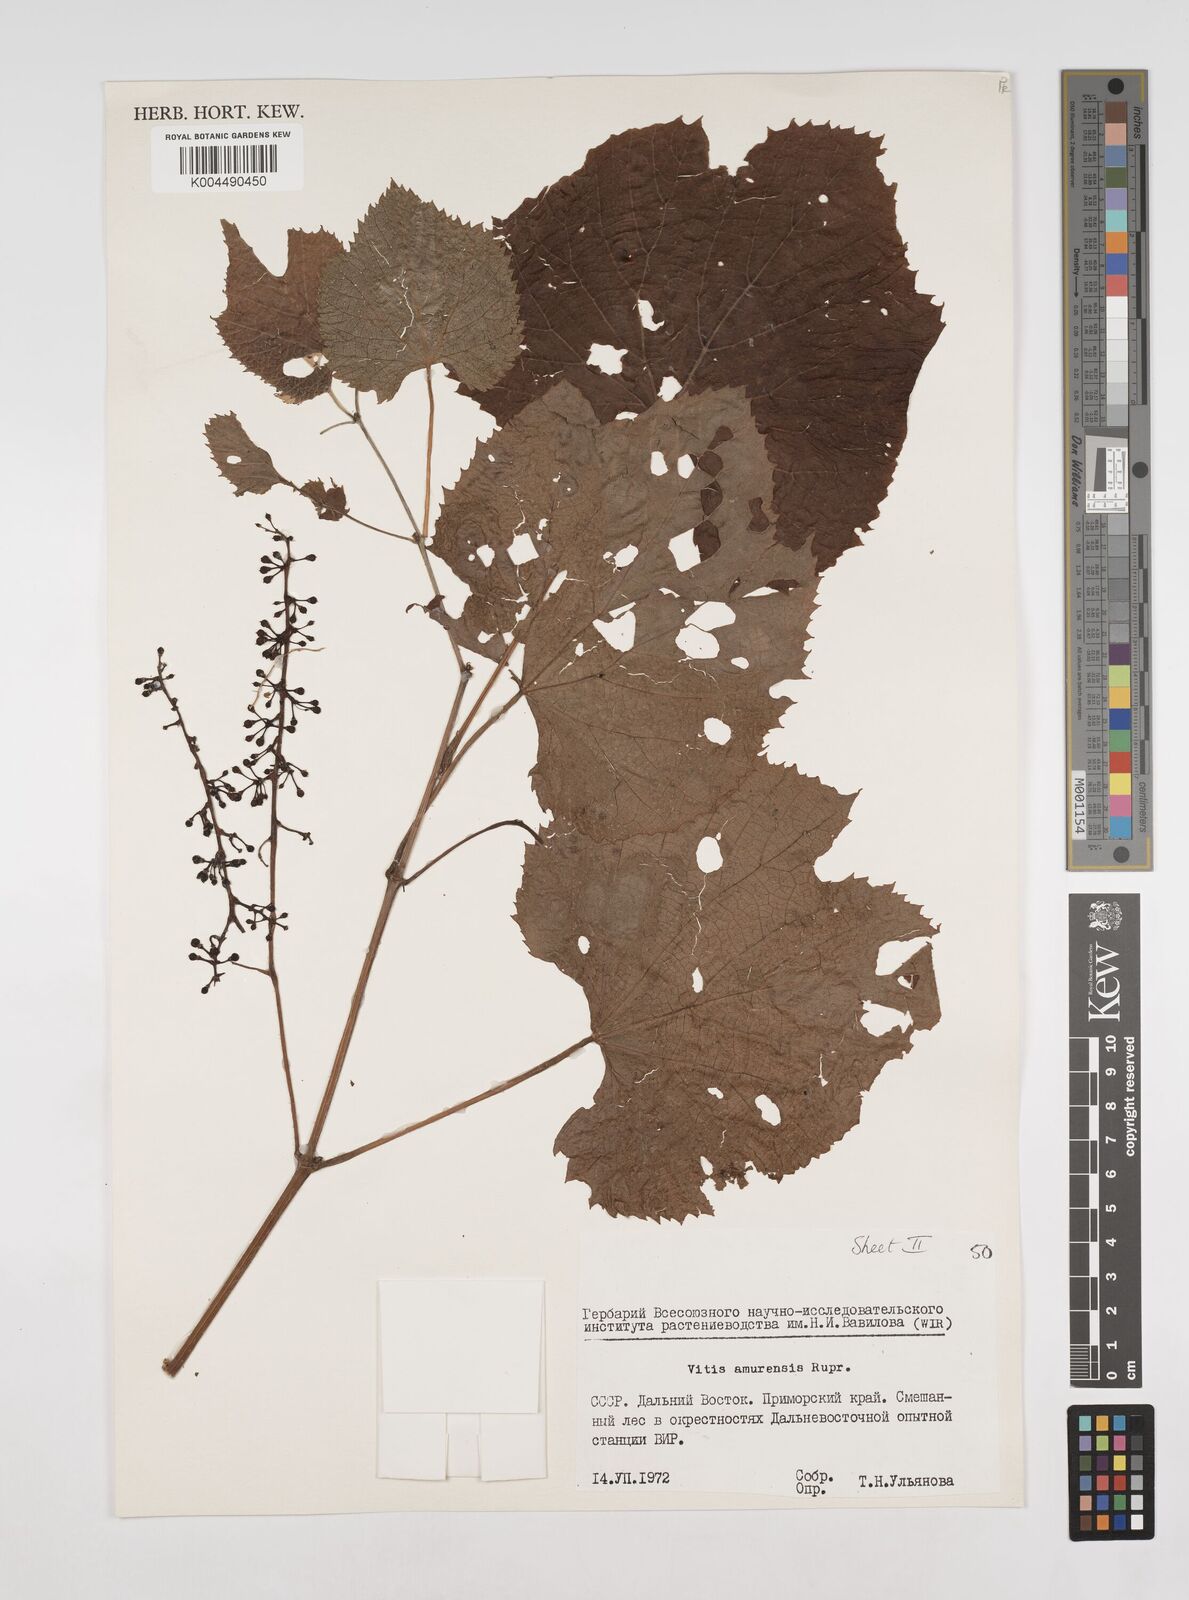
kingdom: Plantae
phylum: Tracheophyta
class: Magnoliopsida
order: Vitales
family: Vitaceae
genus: Vitis
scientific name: Vitis vinifera
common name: Grape-vine
